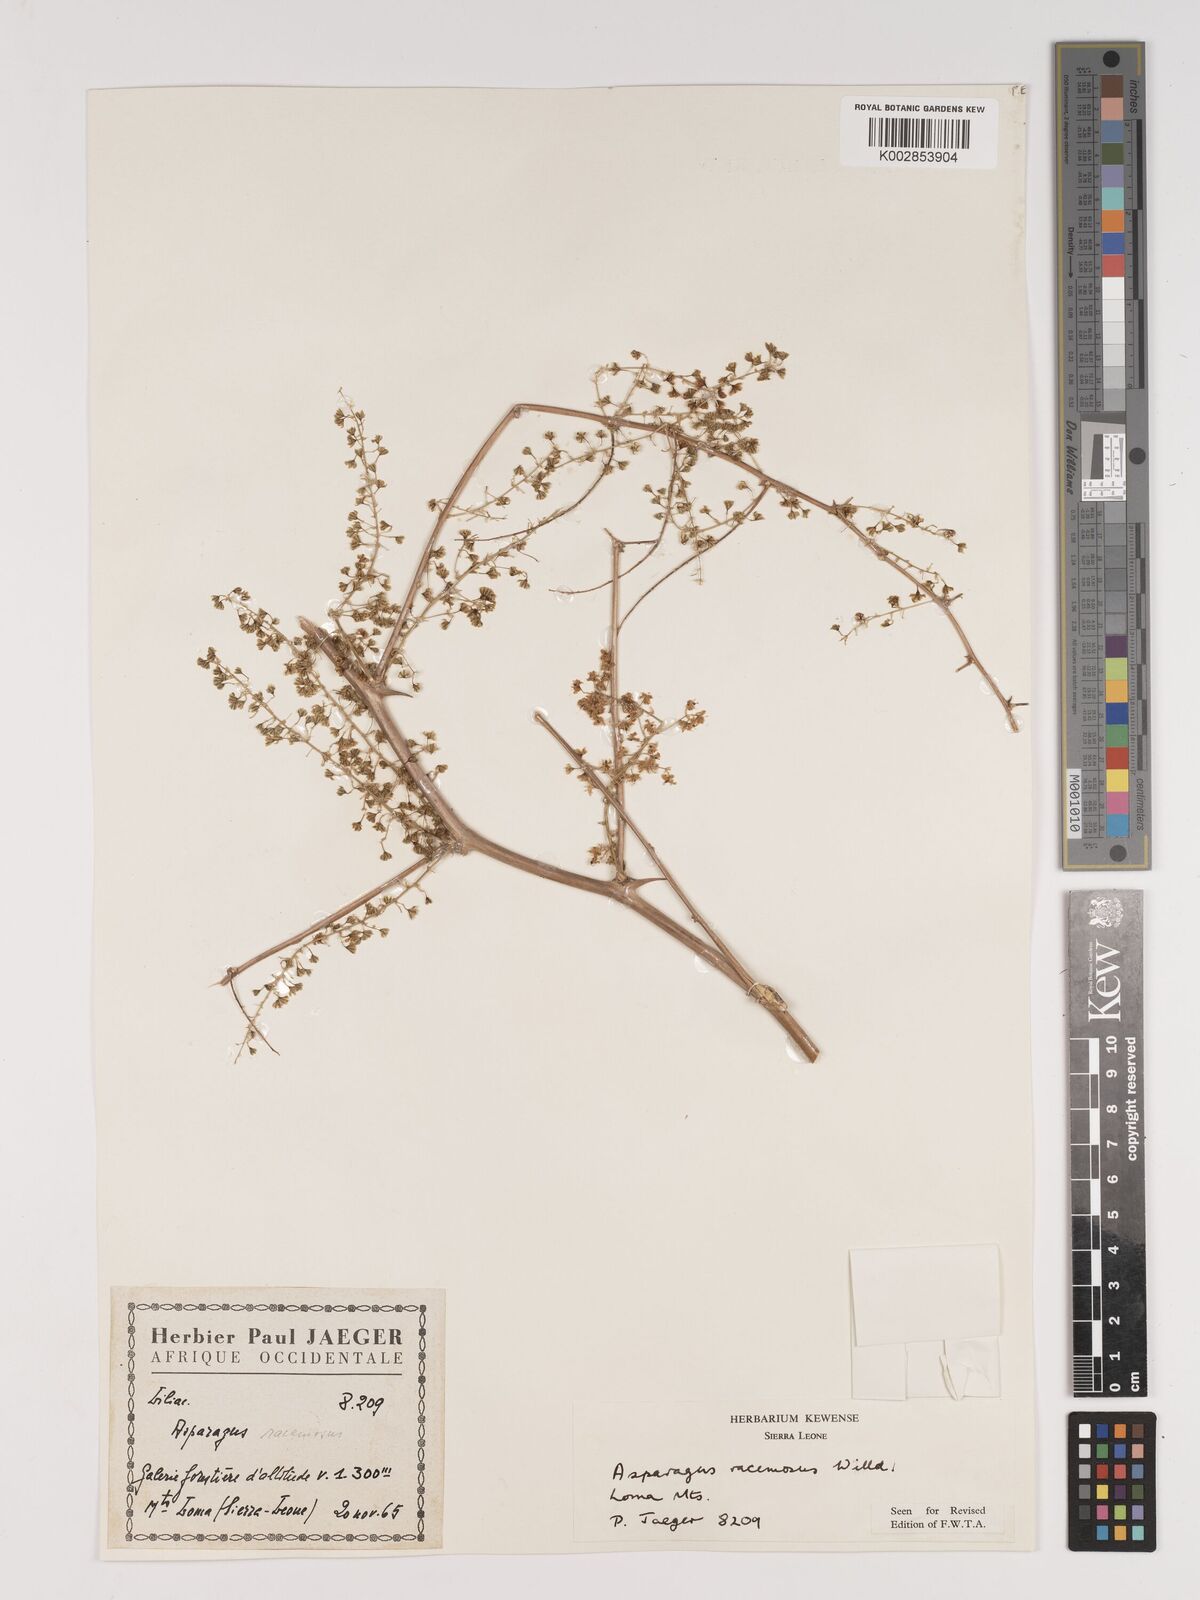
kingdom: Plantae
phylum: Tracheophyta
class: Liliopsida
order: Asparagales
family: Asparagaceae
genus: Asparagus
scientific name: Asparagus racemosus
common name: Asparagus-fern
